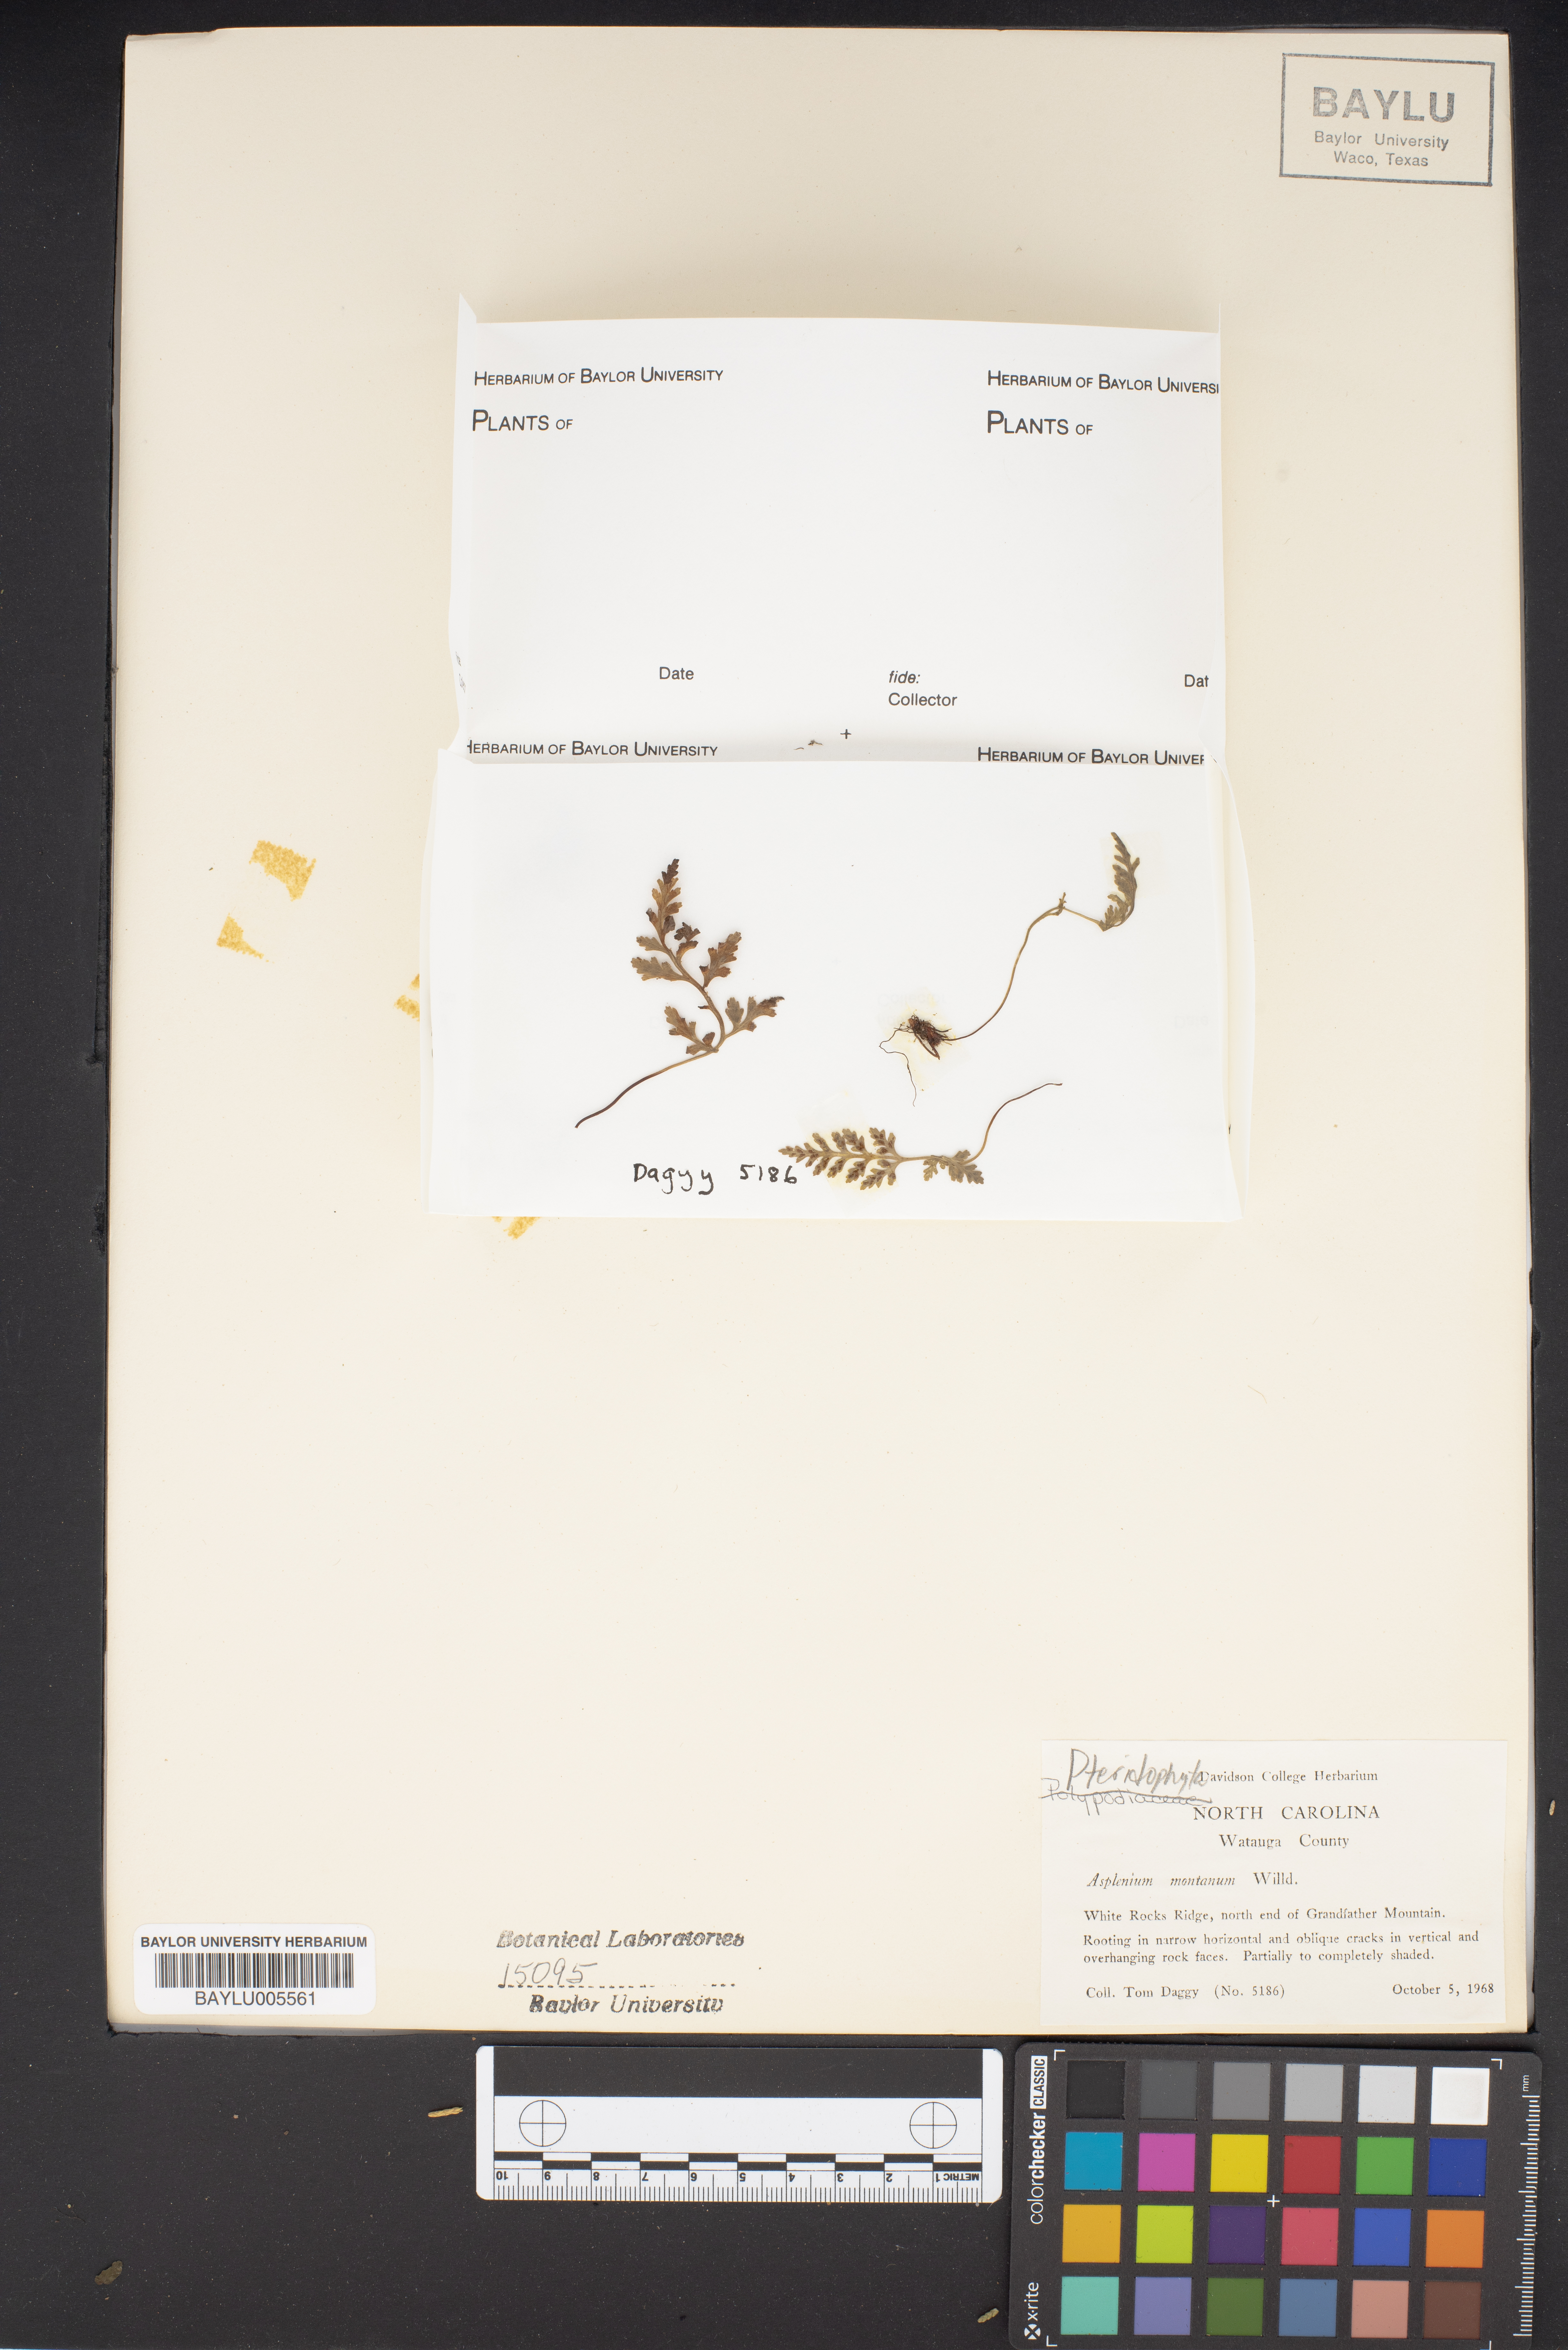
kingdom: Plantae
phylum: Tracheophyta
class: Polypodiopsida
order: Polypodiales
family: Aspleniaceae
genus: Asplenium
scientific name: Asplenium montanum
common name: Mountain spleenwort
